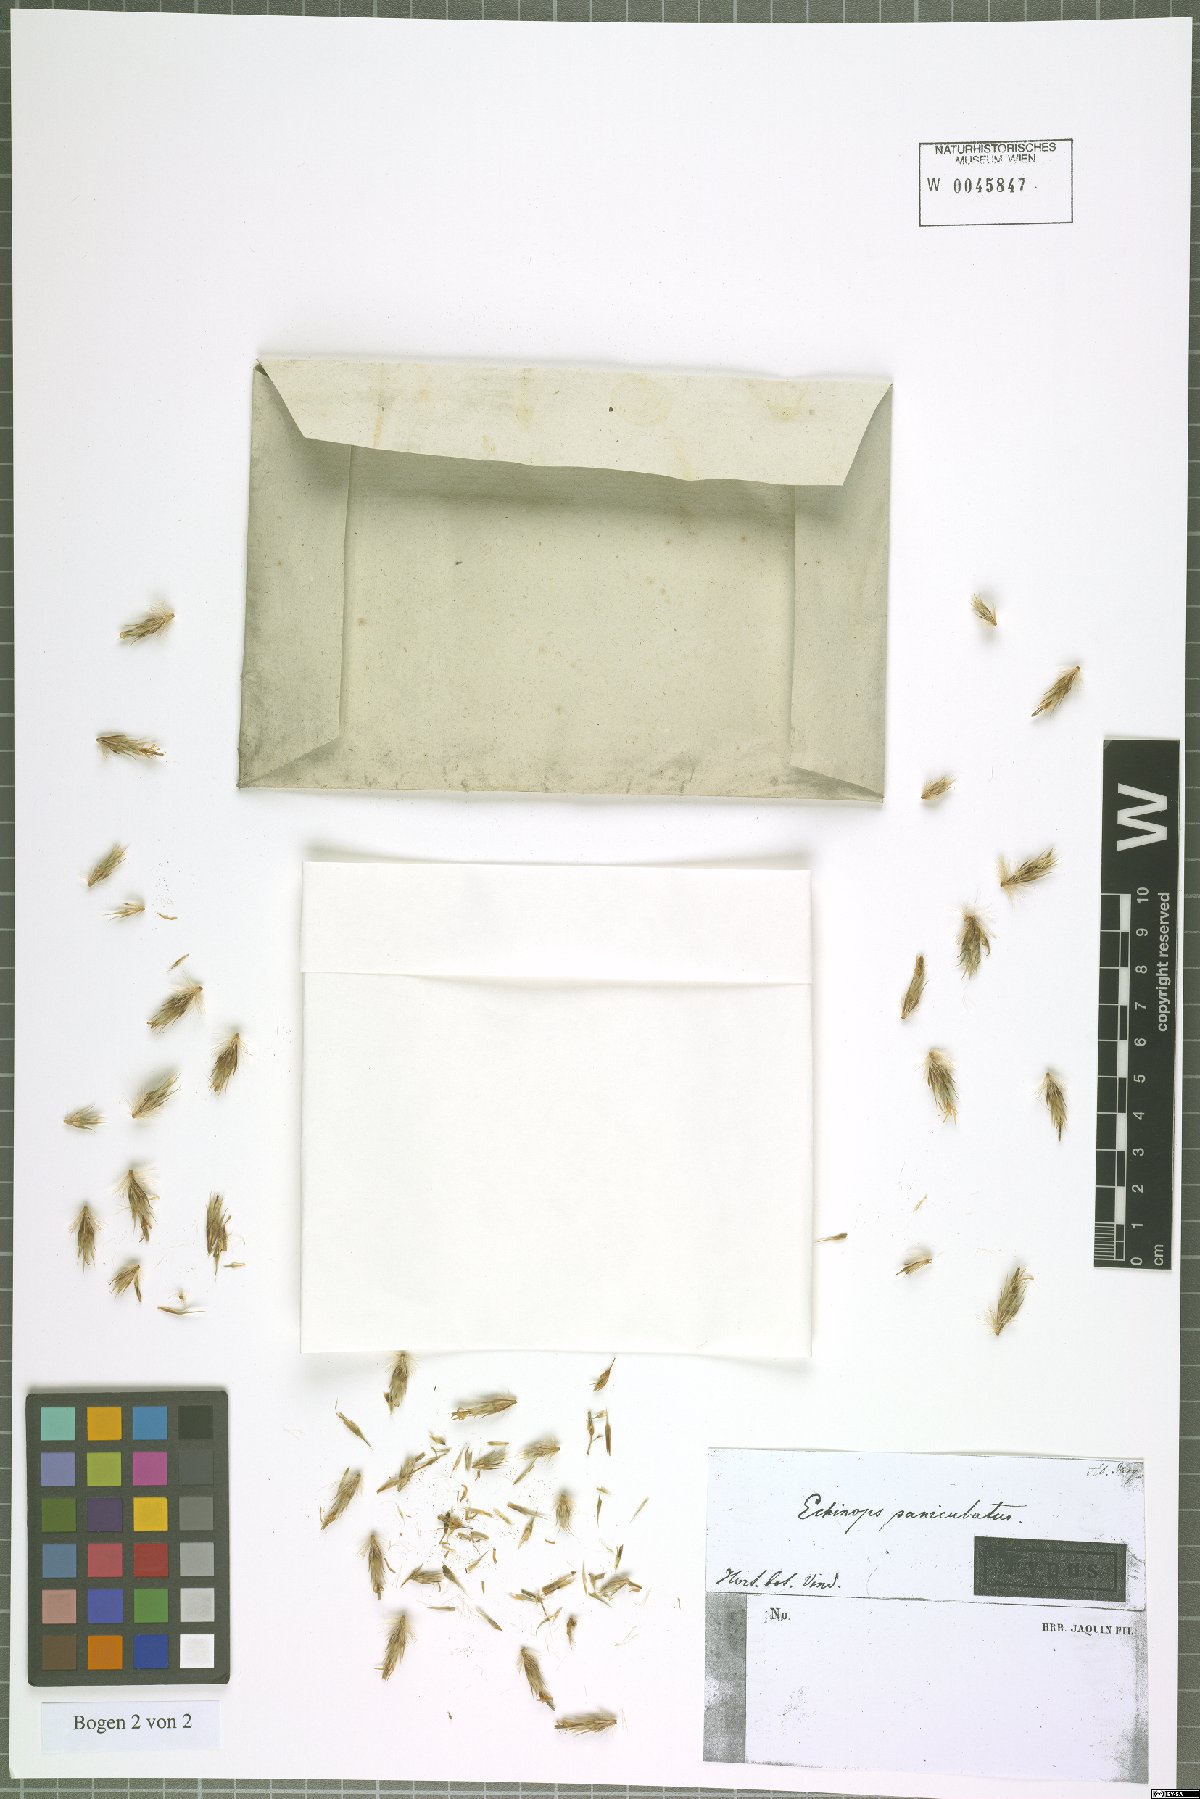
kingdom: Plantae
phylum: Tracheophyta
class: Magnoliopsida
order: Asterales
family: Asteraceae
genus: Echinops
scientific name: Echinops sphaerocephalus
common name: Glandular globe-thistle
